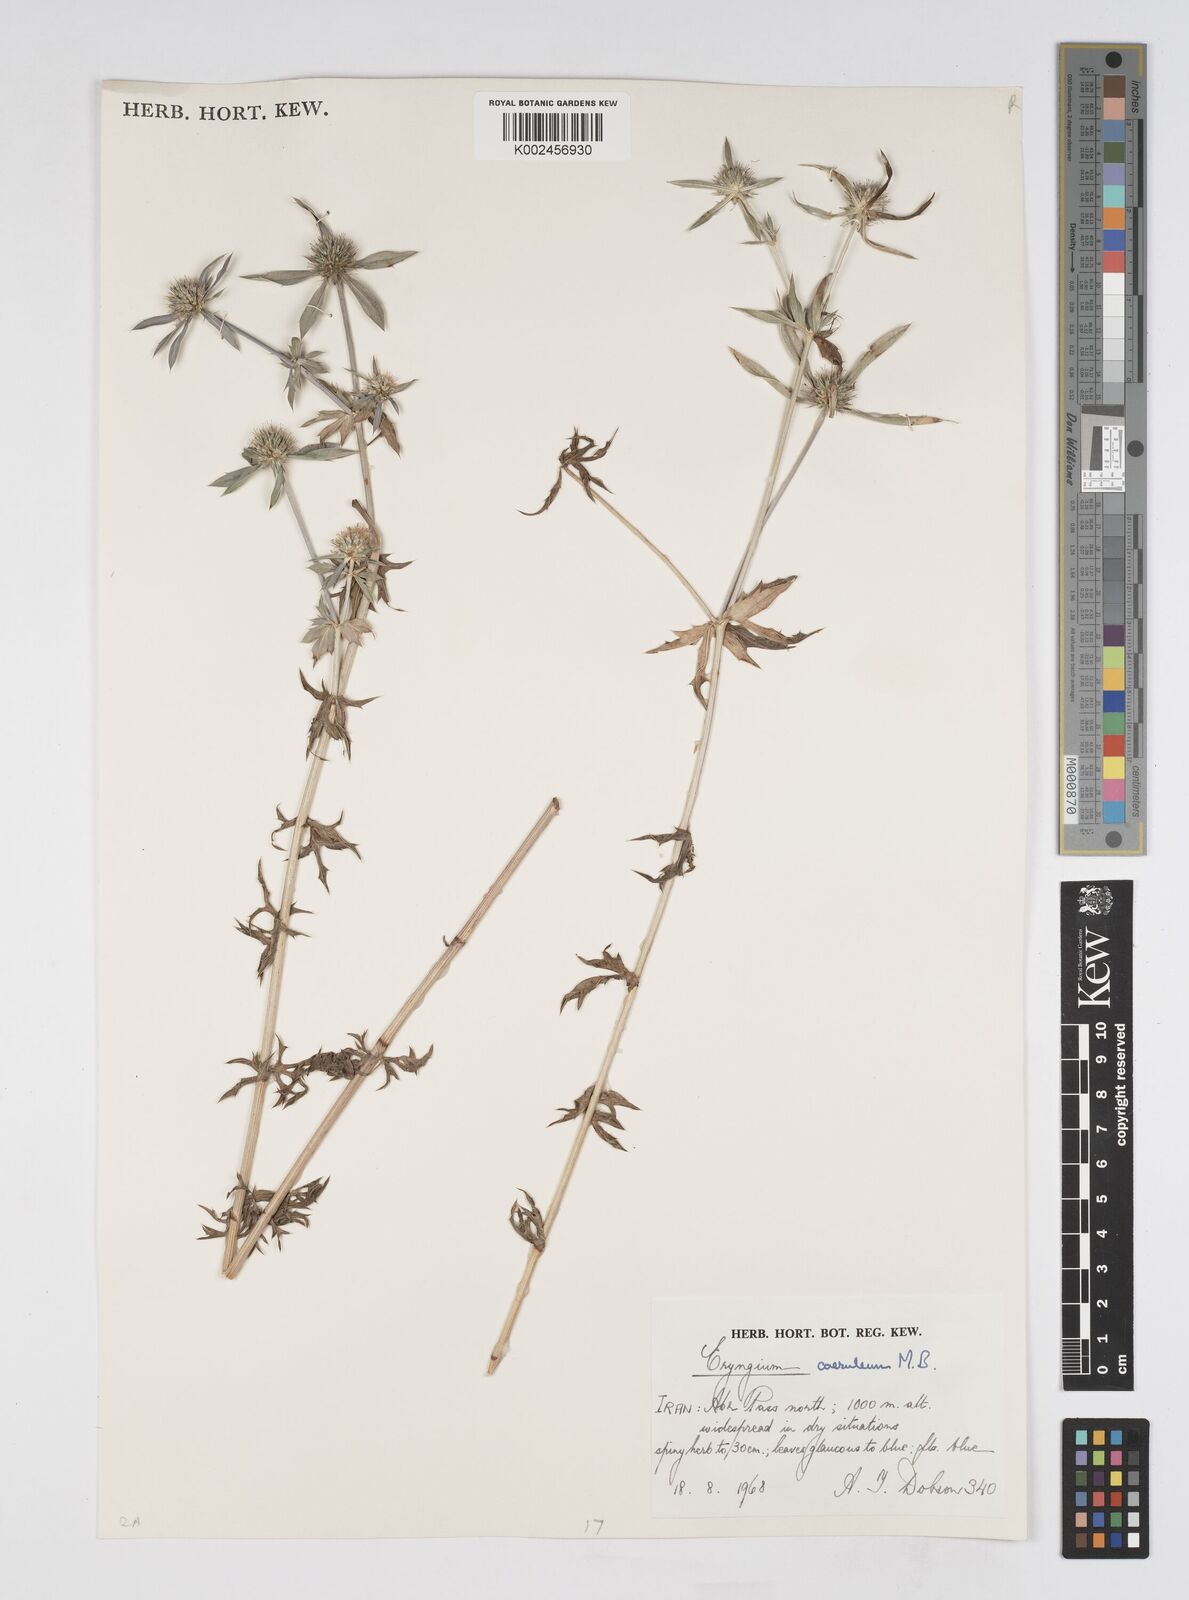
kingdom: Plantae
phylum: Tracheophyta
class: Magnoliopsida
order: Apiales
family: Apiaceae
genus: Eryngium
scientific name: Eryngium caeruleum
